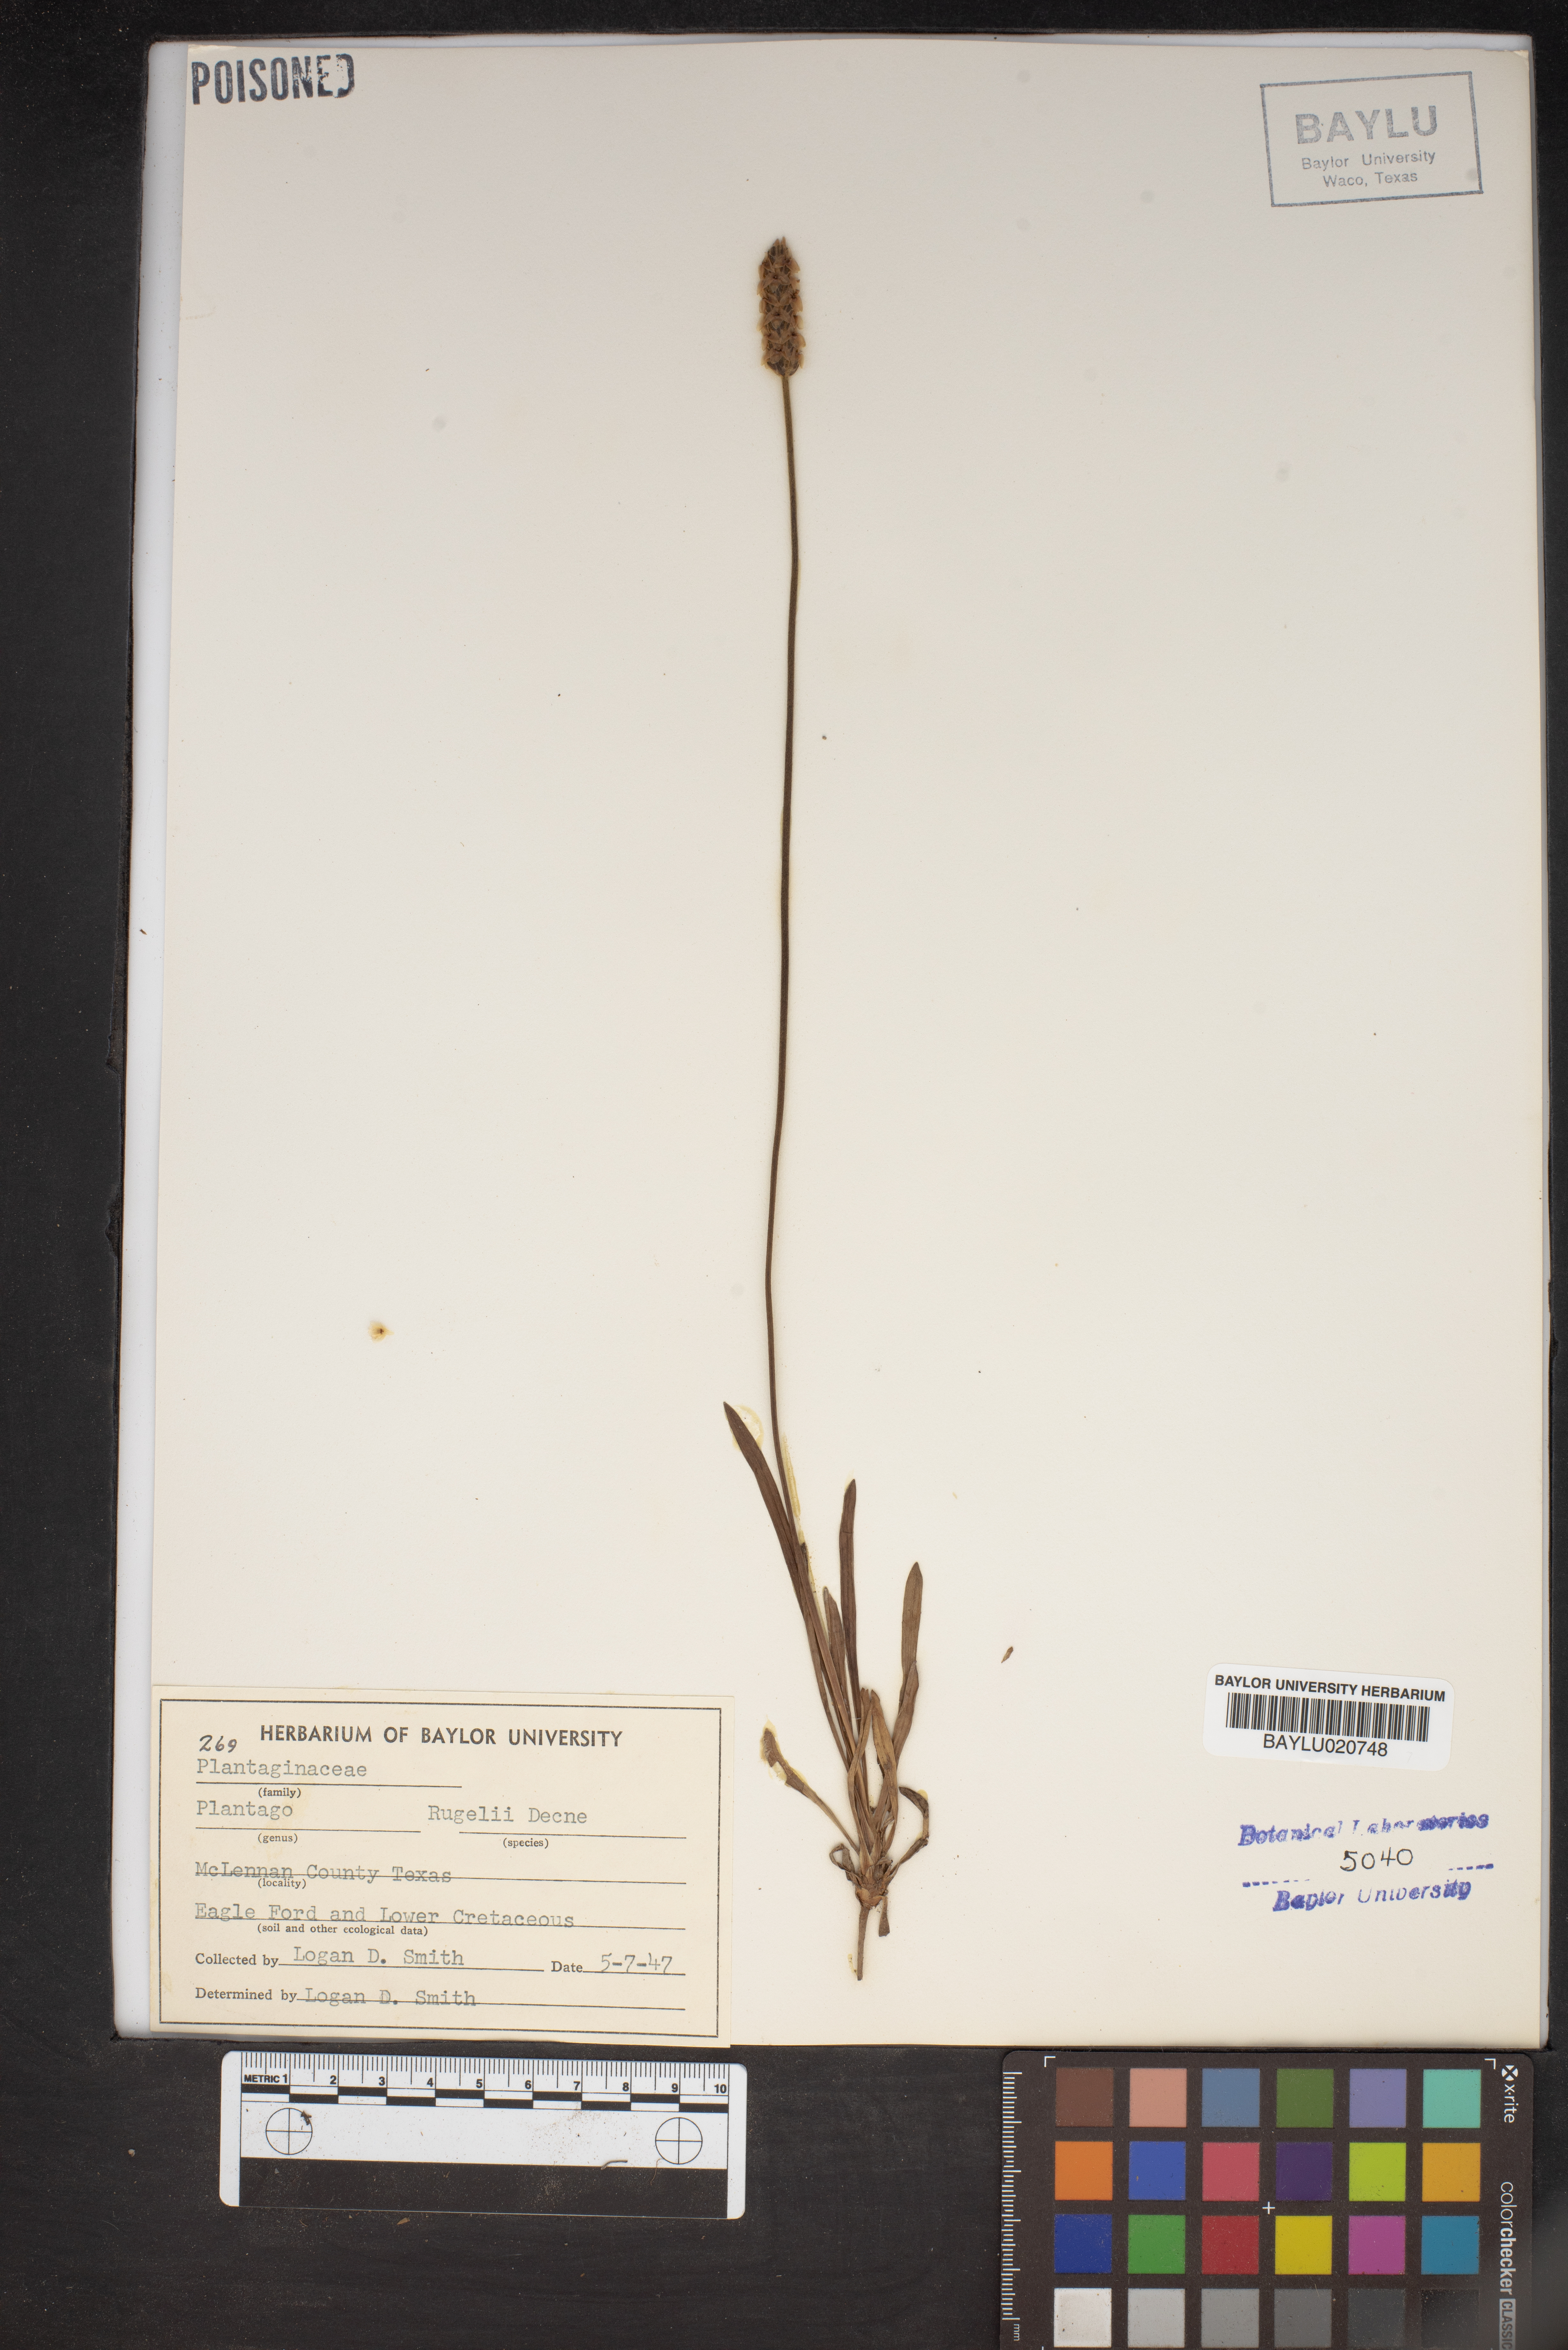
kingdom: Plantae
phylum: Tracheophyta
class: Magnoliopsida
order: Lamiales
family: Plantaginaceae
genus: Plantago
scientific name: Plantago rugelii
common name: American plantain
